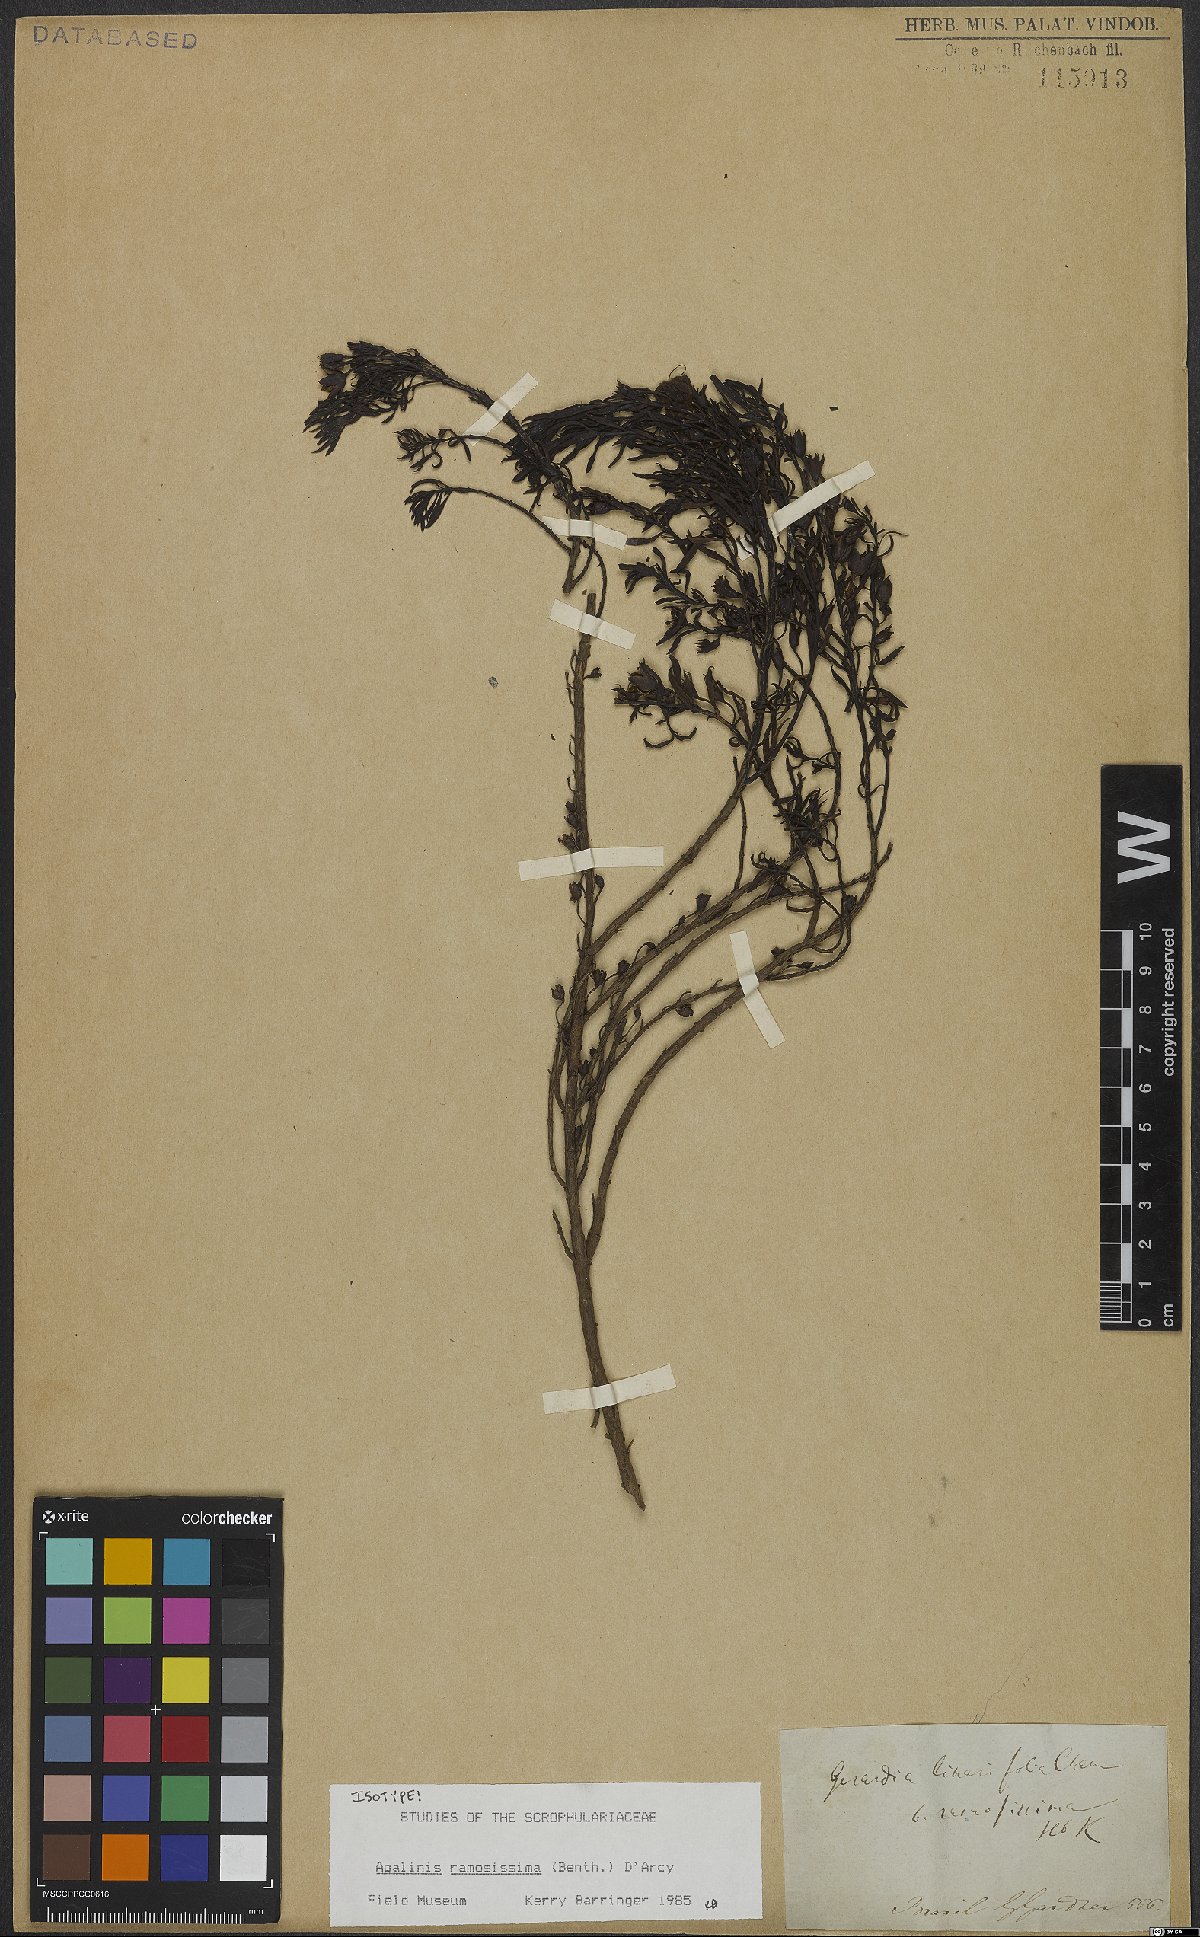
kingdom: Plantae
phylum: Tracheophyta
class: Magnoliopsida
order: Lamiales
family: Scrophulariaceae
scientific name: Scrophulariaceae
